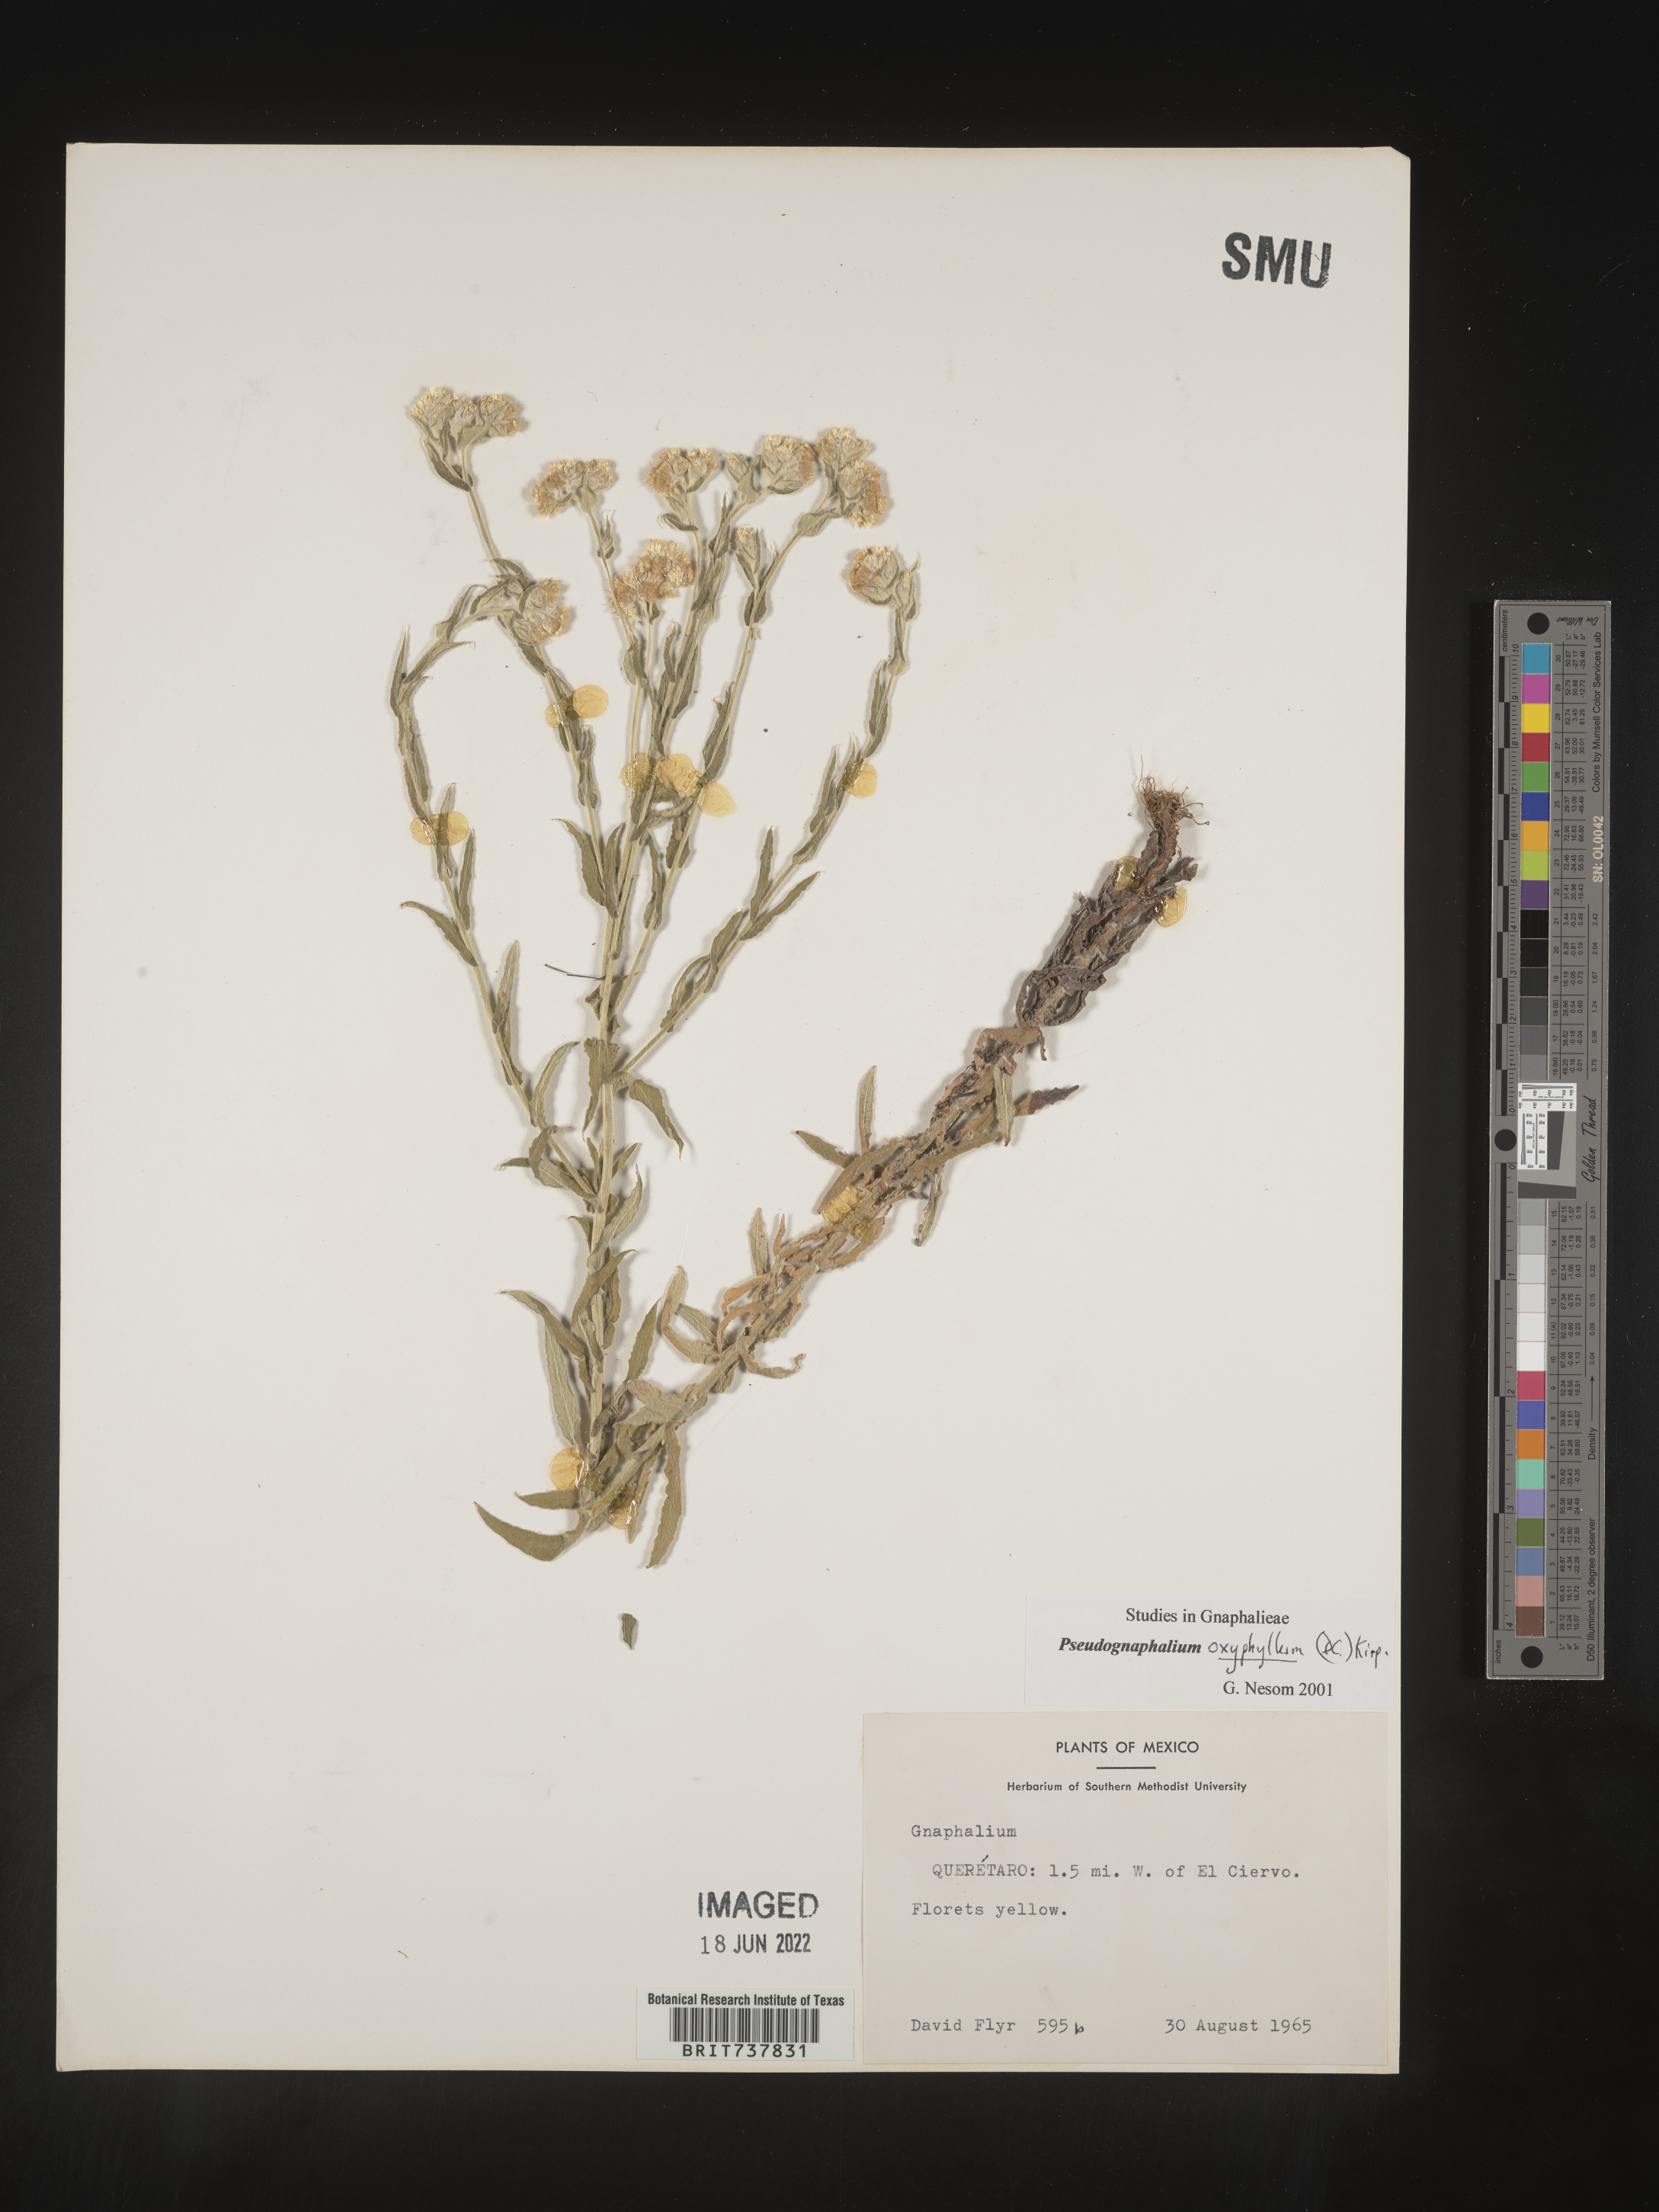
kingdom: Plantae
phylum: Tracheophyta
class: Magnoliopsida
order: Asterales
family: Asteraceae
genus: Pseudognaphalium
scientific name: Pseudognaphalium
